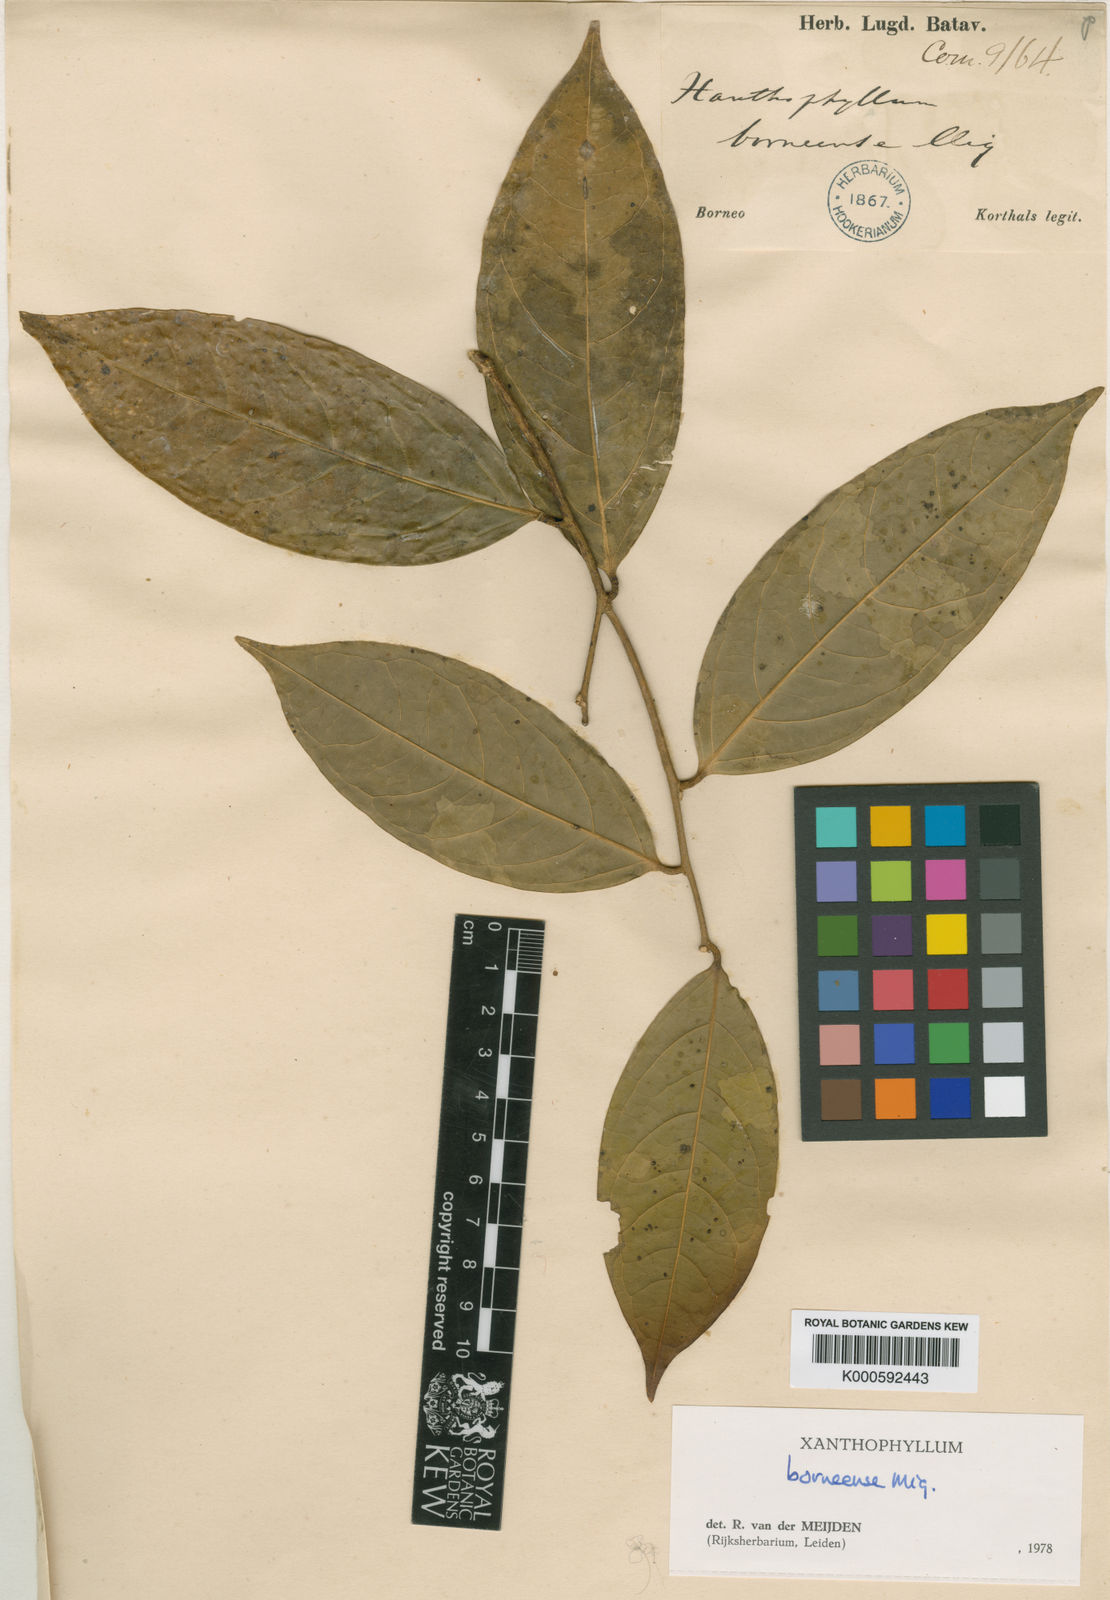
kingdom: Plantae
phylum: Tracheophyta
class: Magnoliopsida
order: Fabales
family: Polygalaceae
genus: Xanthophyllum
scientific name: Xanthophyllum borneense
